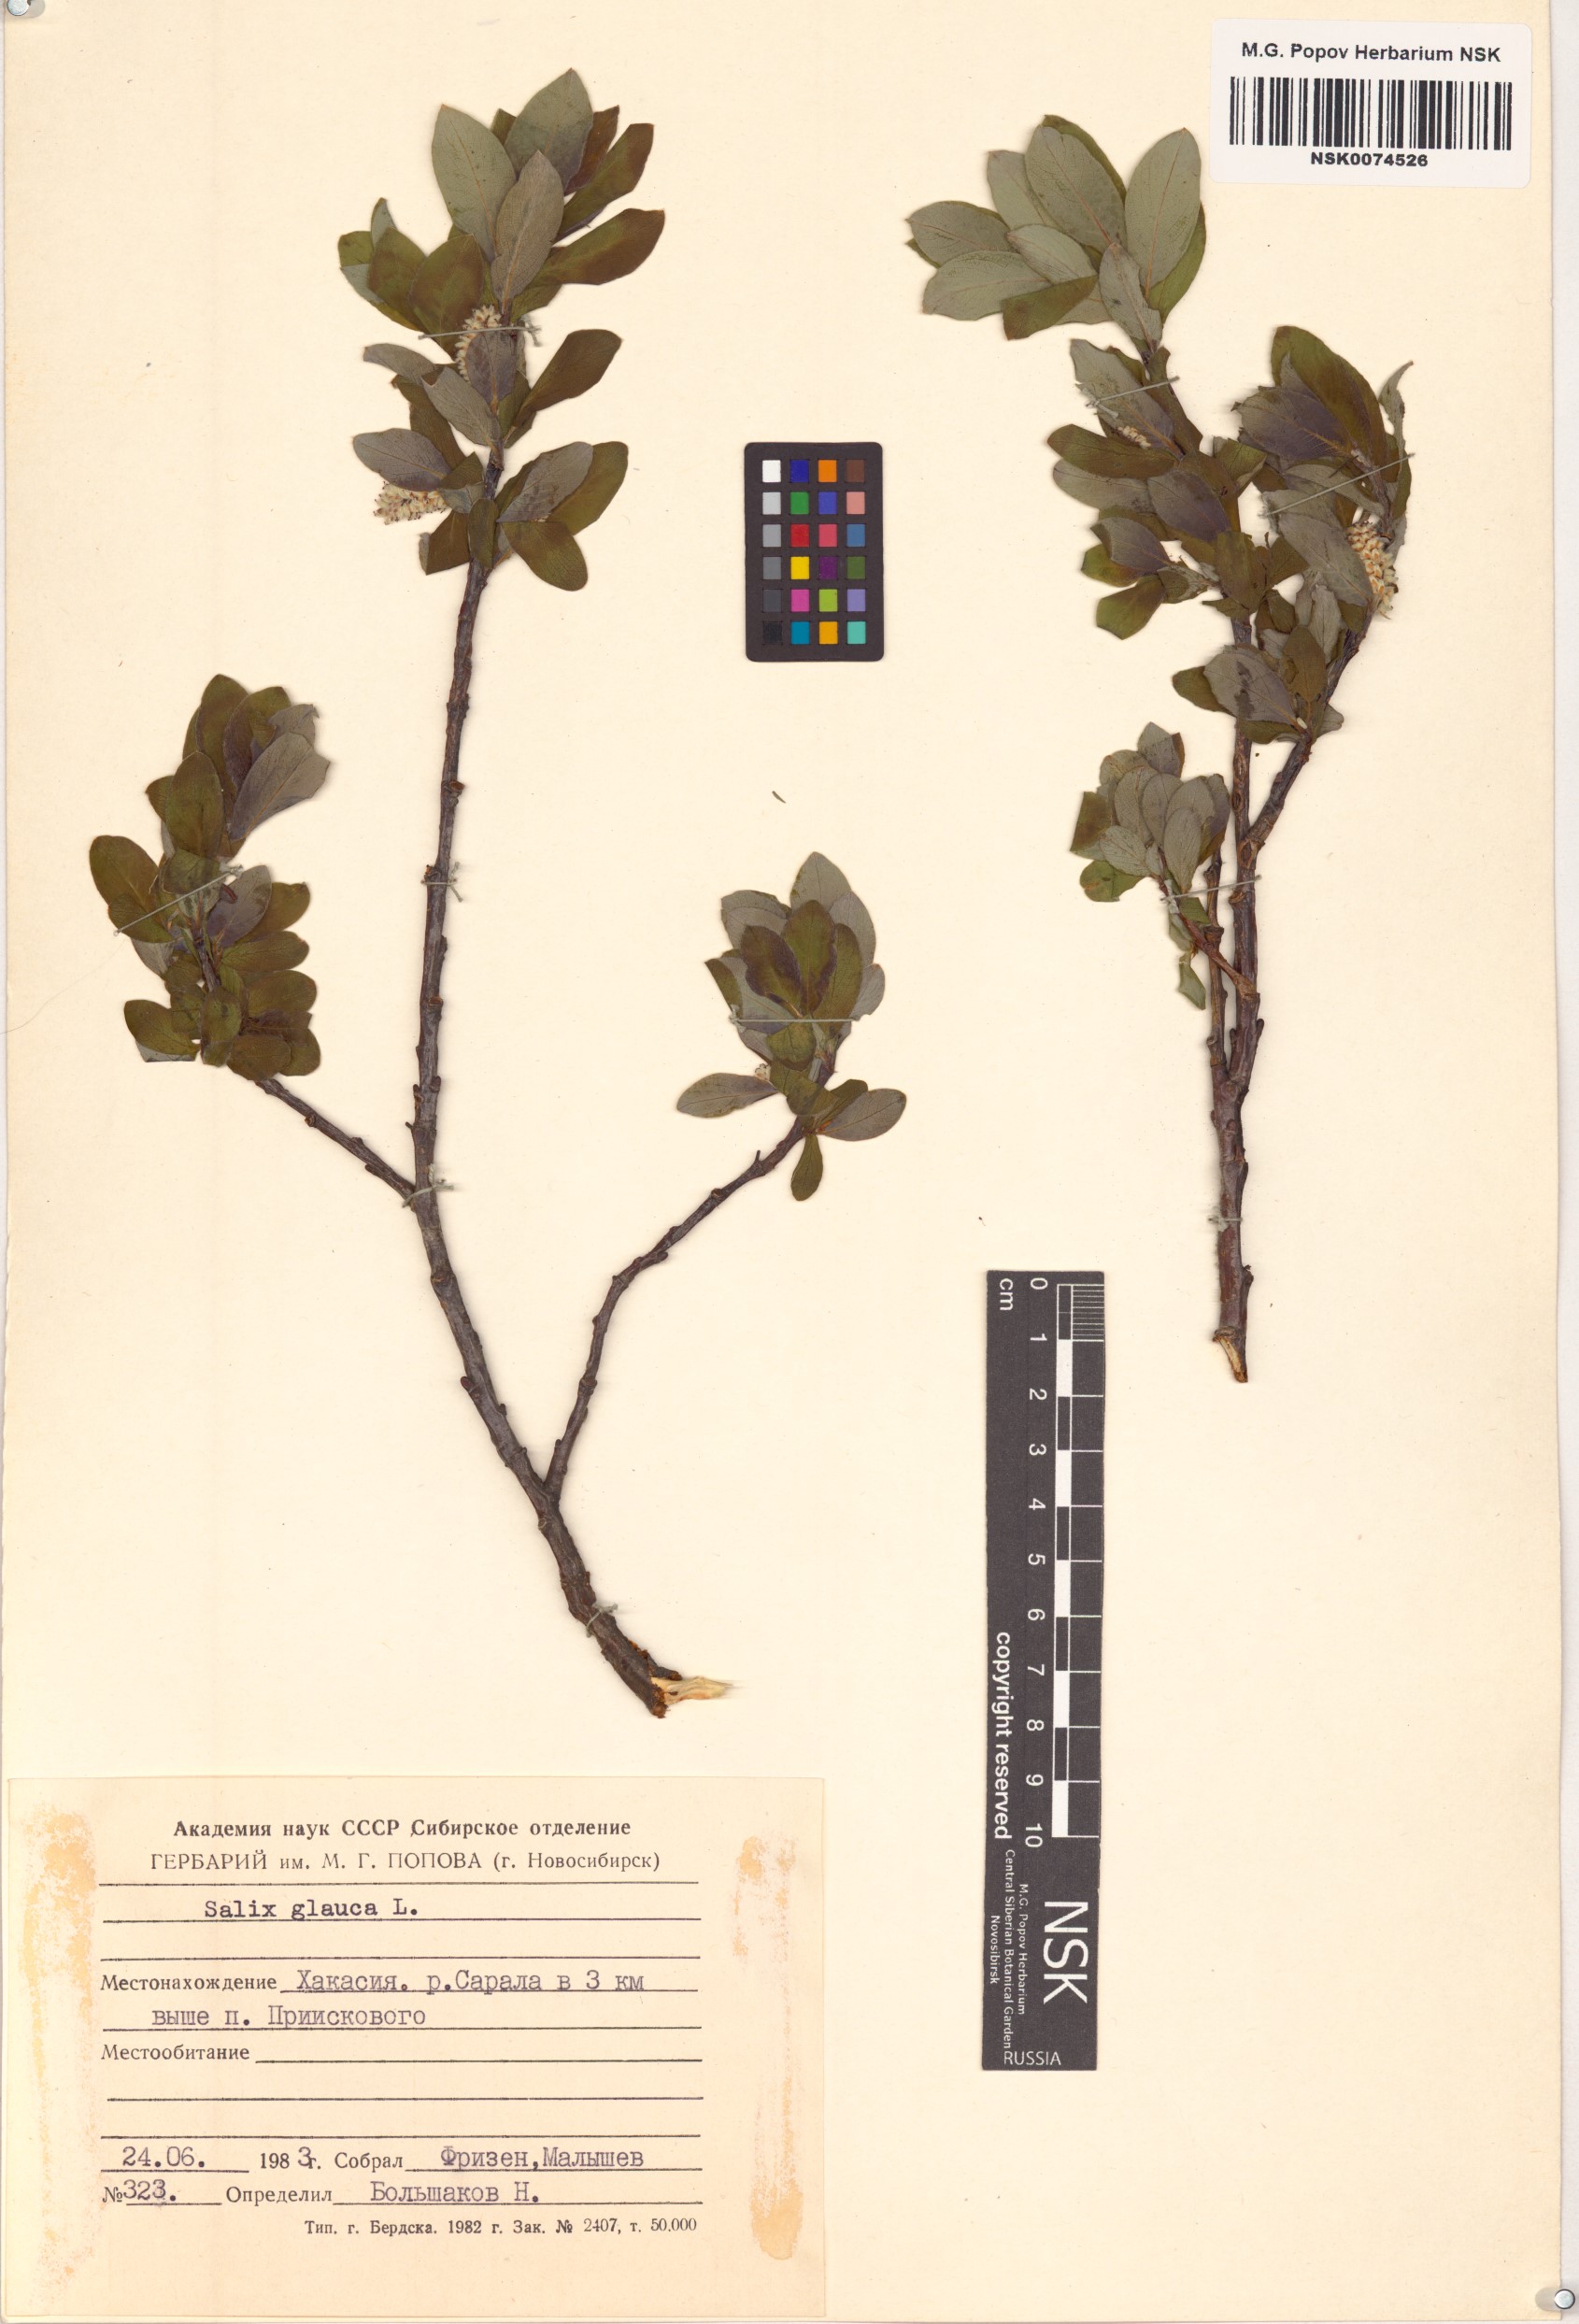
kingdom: Plantae
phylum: Tracheophyta
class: Magnoliopsida
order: Malpighiales
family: Salicaceae
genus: Salix
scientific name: Salix glauca
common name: Glaucous willow
